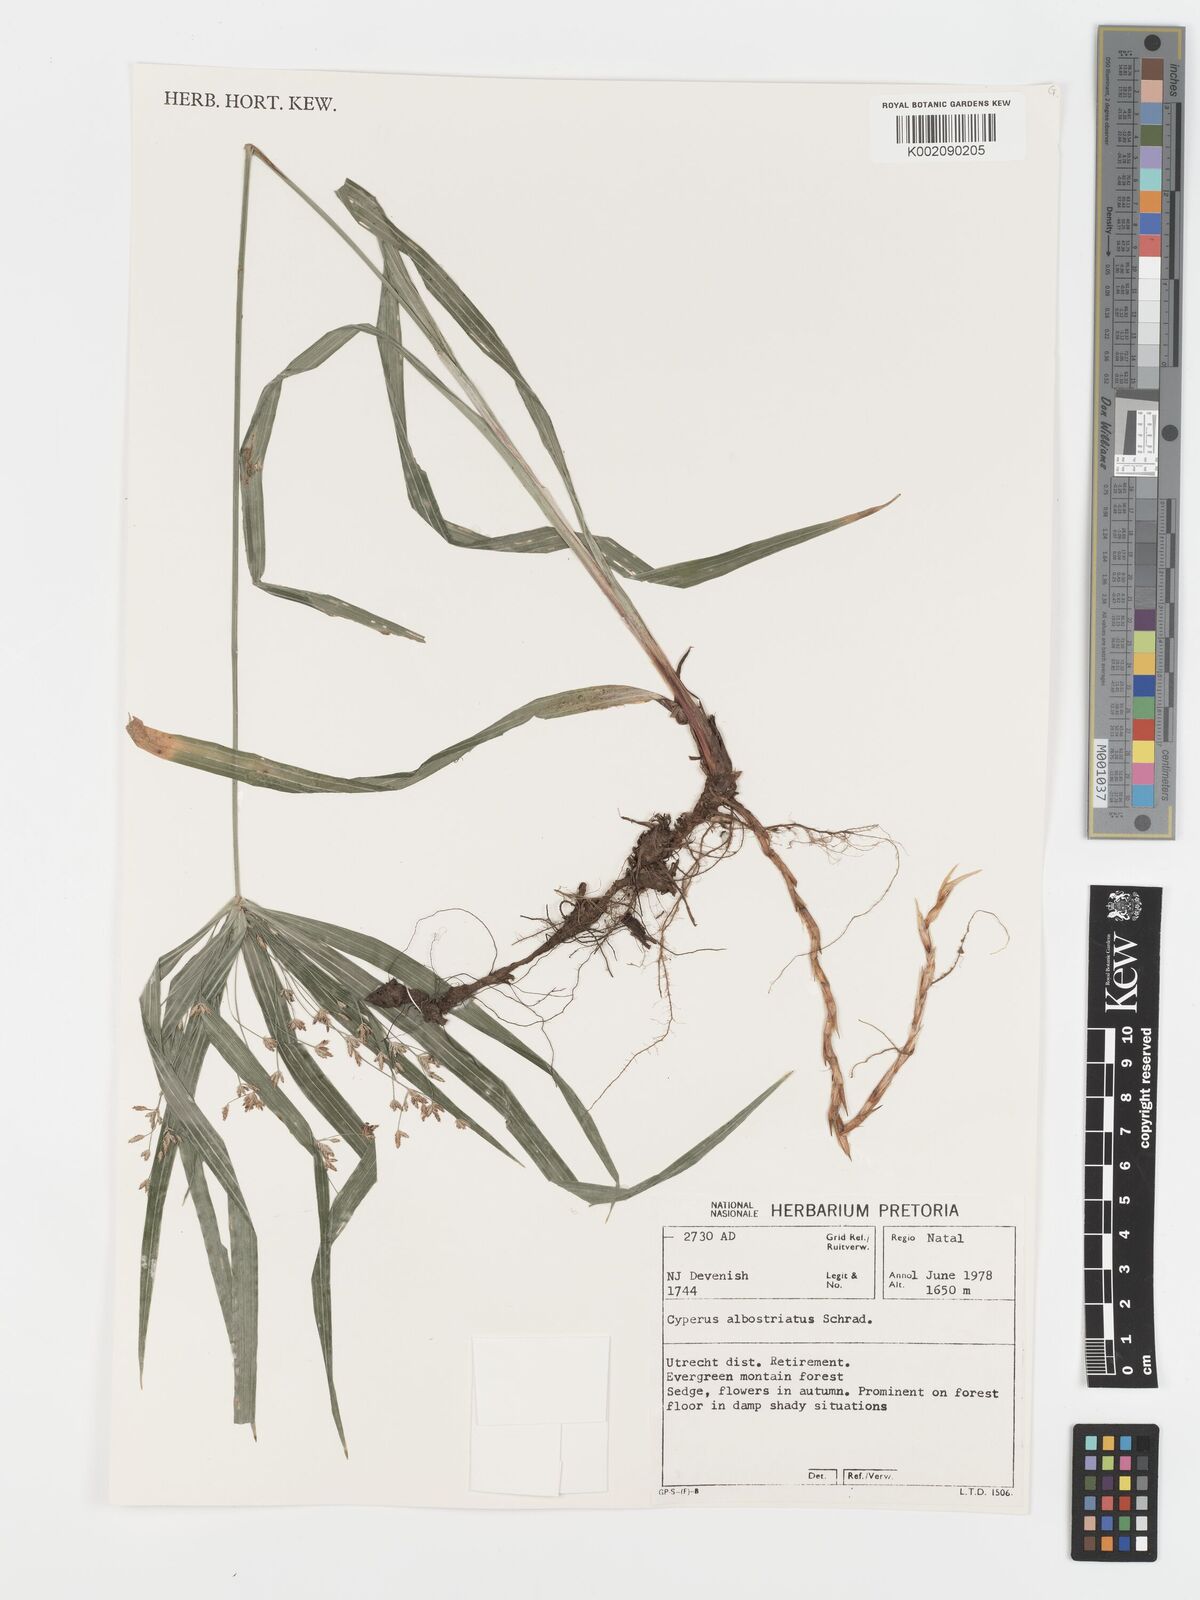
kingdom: Plantae
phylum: Tracheophyta
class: Liliopsida
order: Poales
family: Cyperaceae
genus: Cyperus
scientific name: Cyperus albostriatus
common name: Dwarf umbrella-grass
